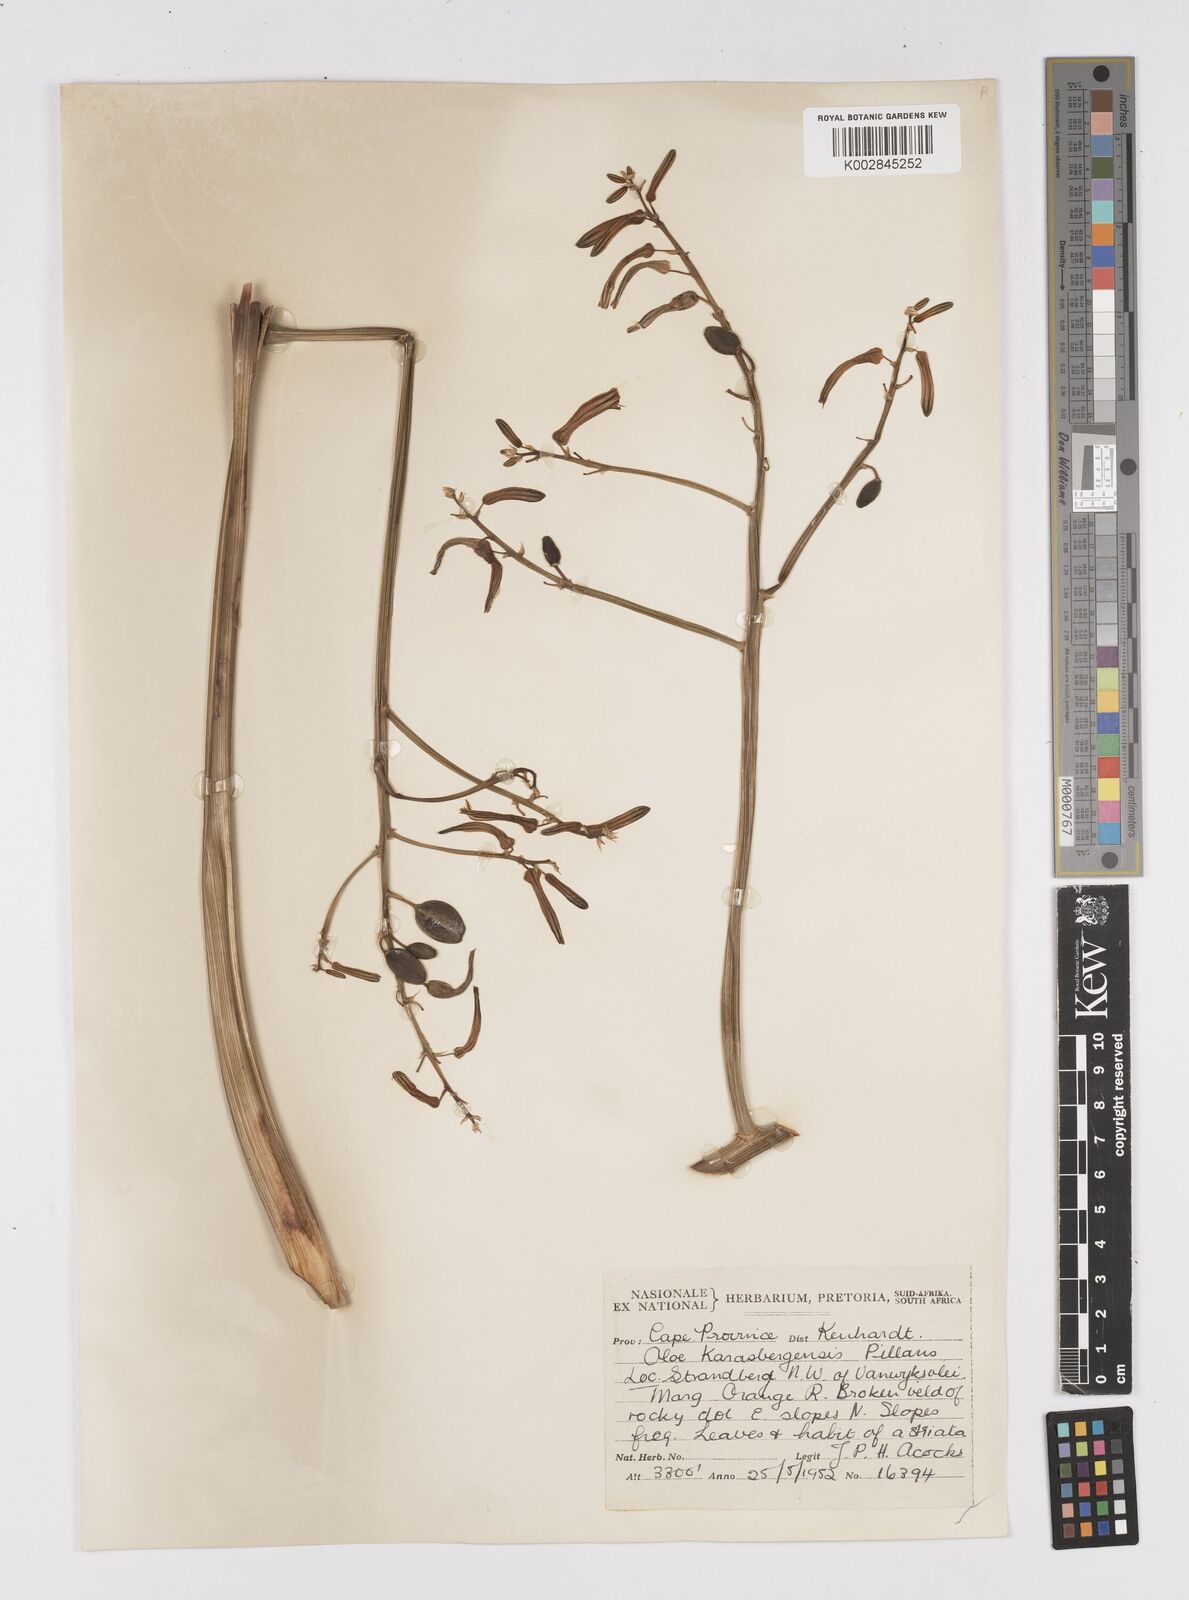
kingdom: Plantae
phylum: Tracheophyta
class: Liliopsida
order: Asparagales
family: Asphodelaceae
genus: Aloe
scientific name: Aloe karasbergensis
